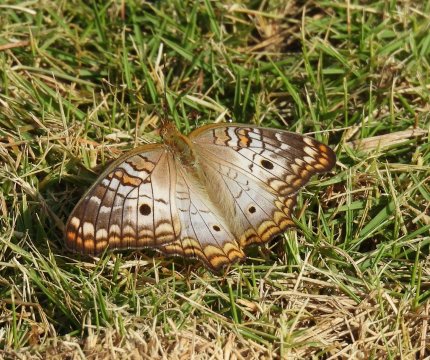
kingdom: Animalia
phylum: Arthropoda
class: Insecta
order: Lepidoptera
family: Nymphalidae
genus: Anartia
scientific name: Anartia jatrophae
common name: White Peacock
